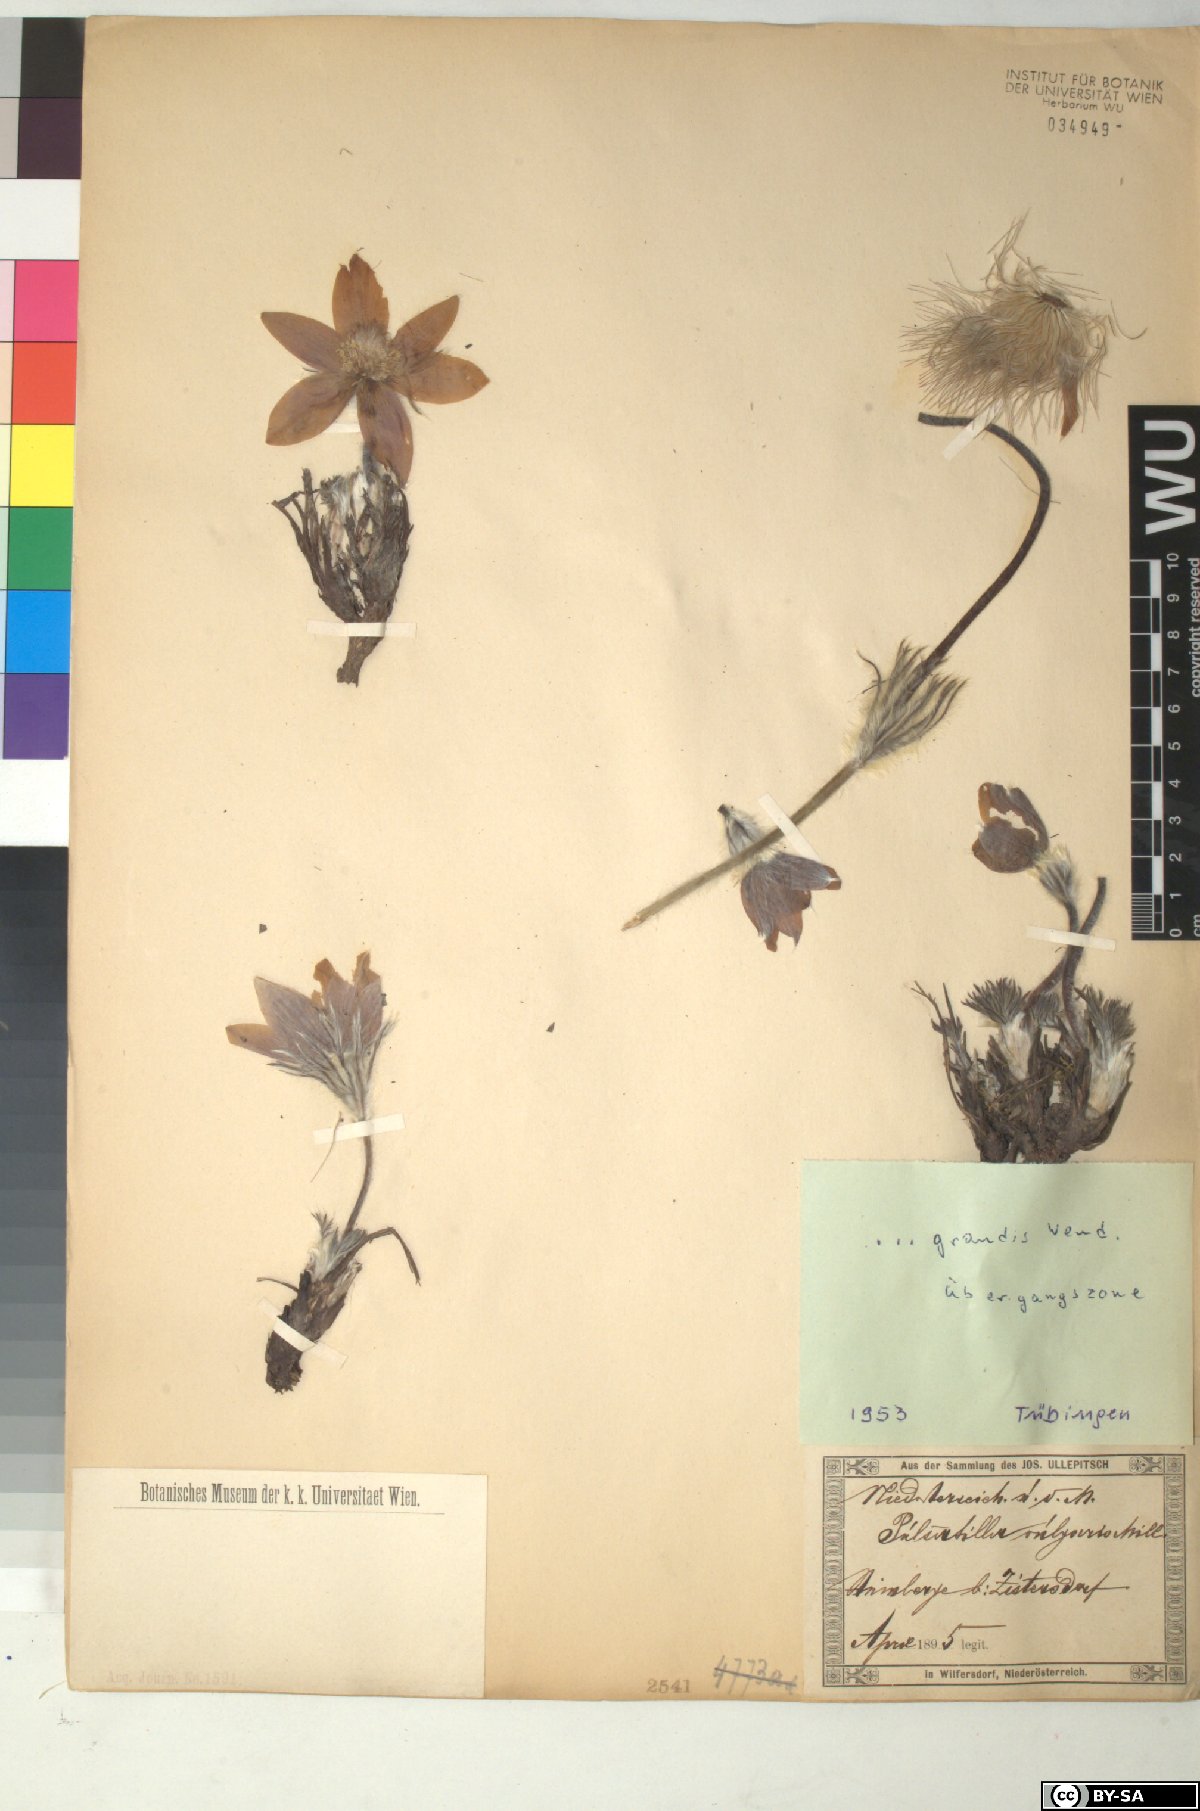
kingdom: Plantae
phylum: Tracheophyta
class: Magnoliopsida
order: Ranunculales
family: Ranunculaceae
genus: Pulsatilla
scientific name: Pulsatilla grandis
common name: Greater pasque flower
